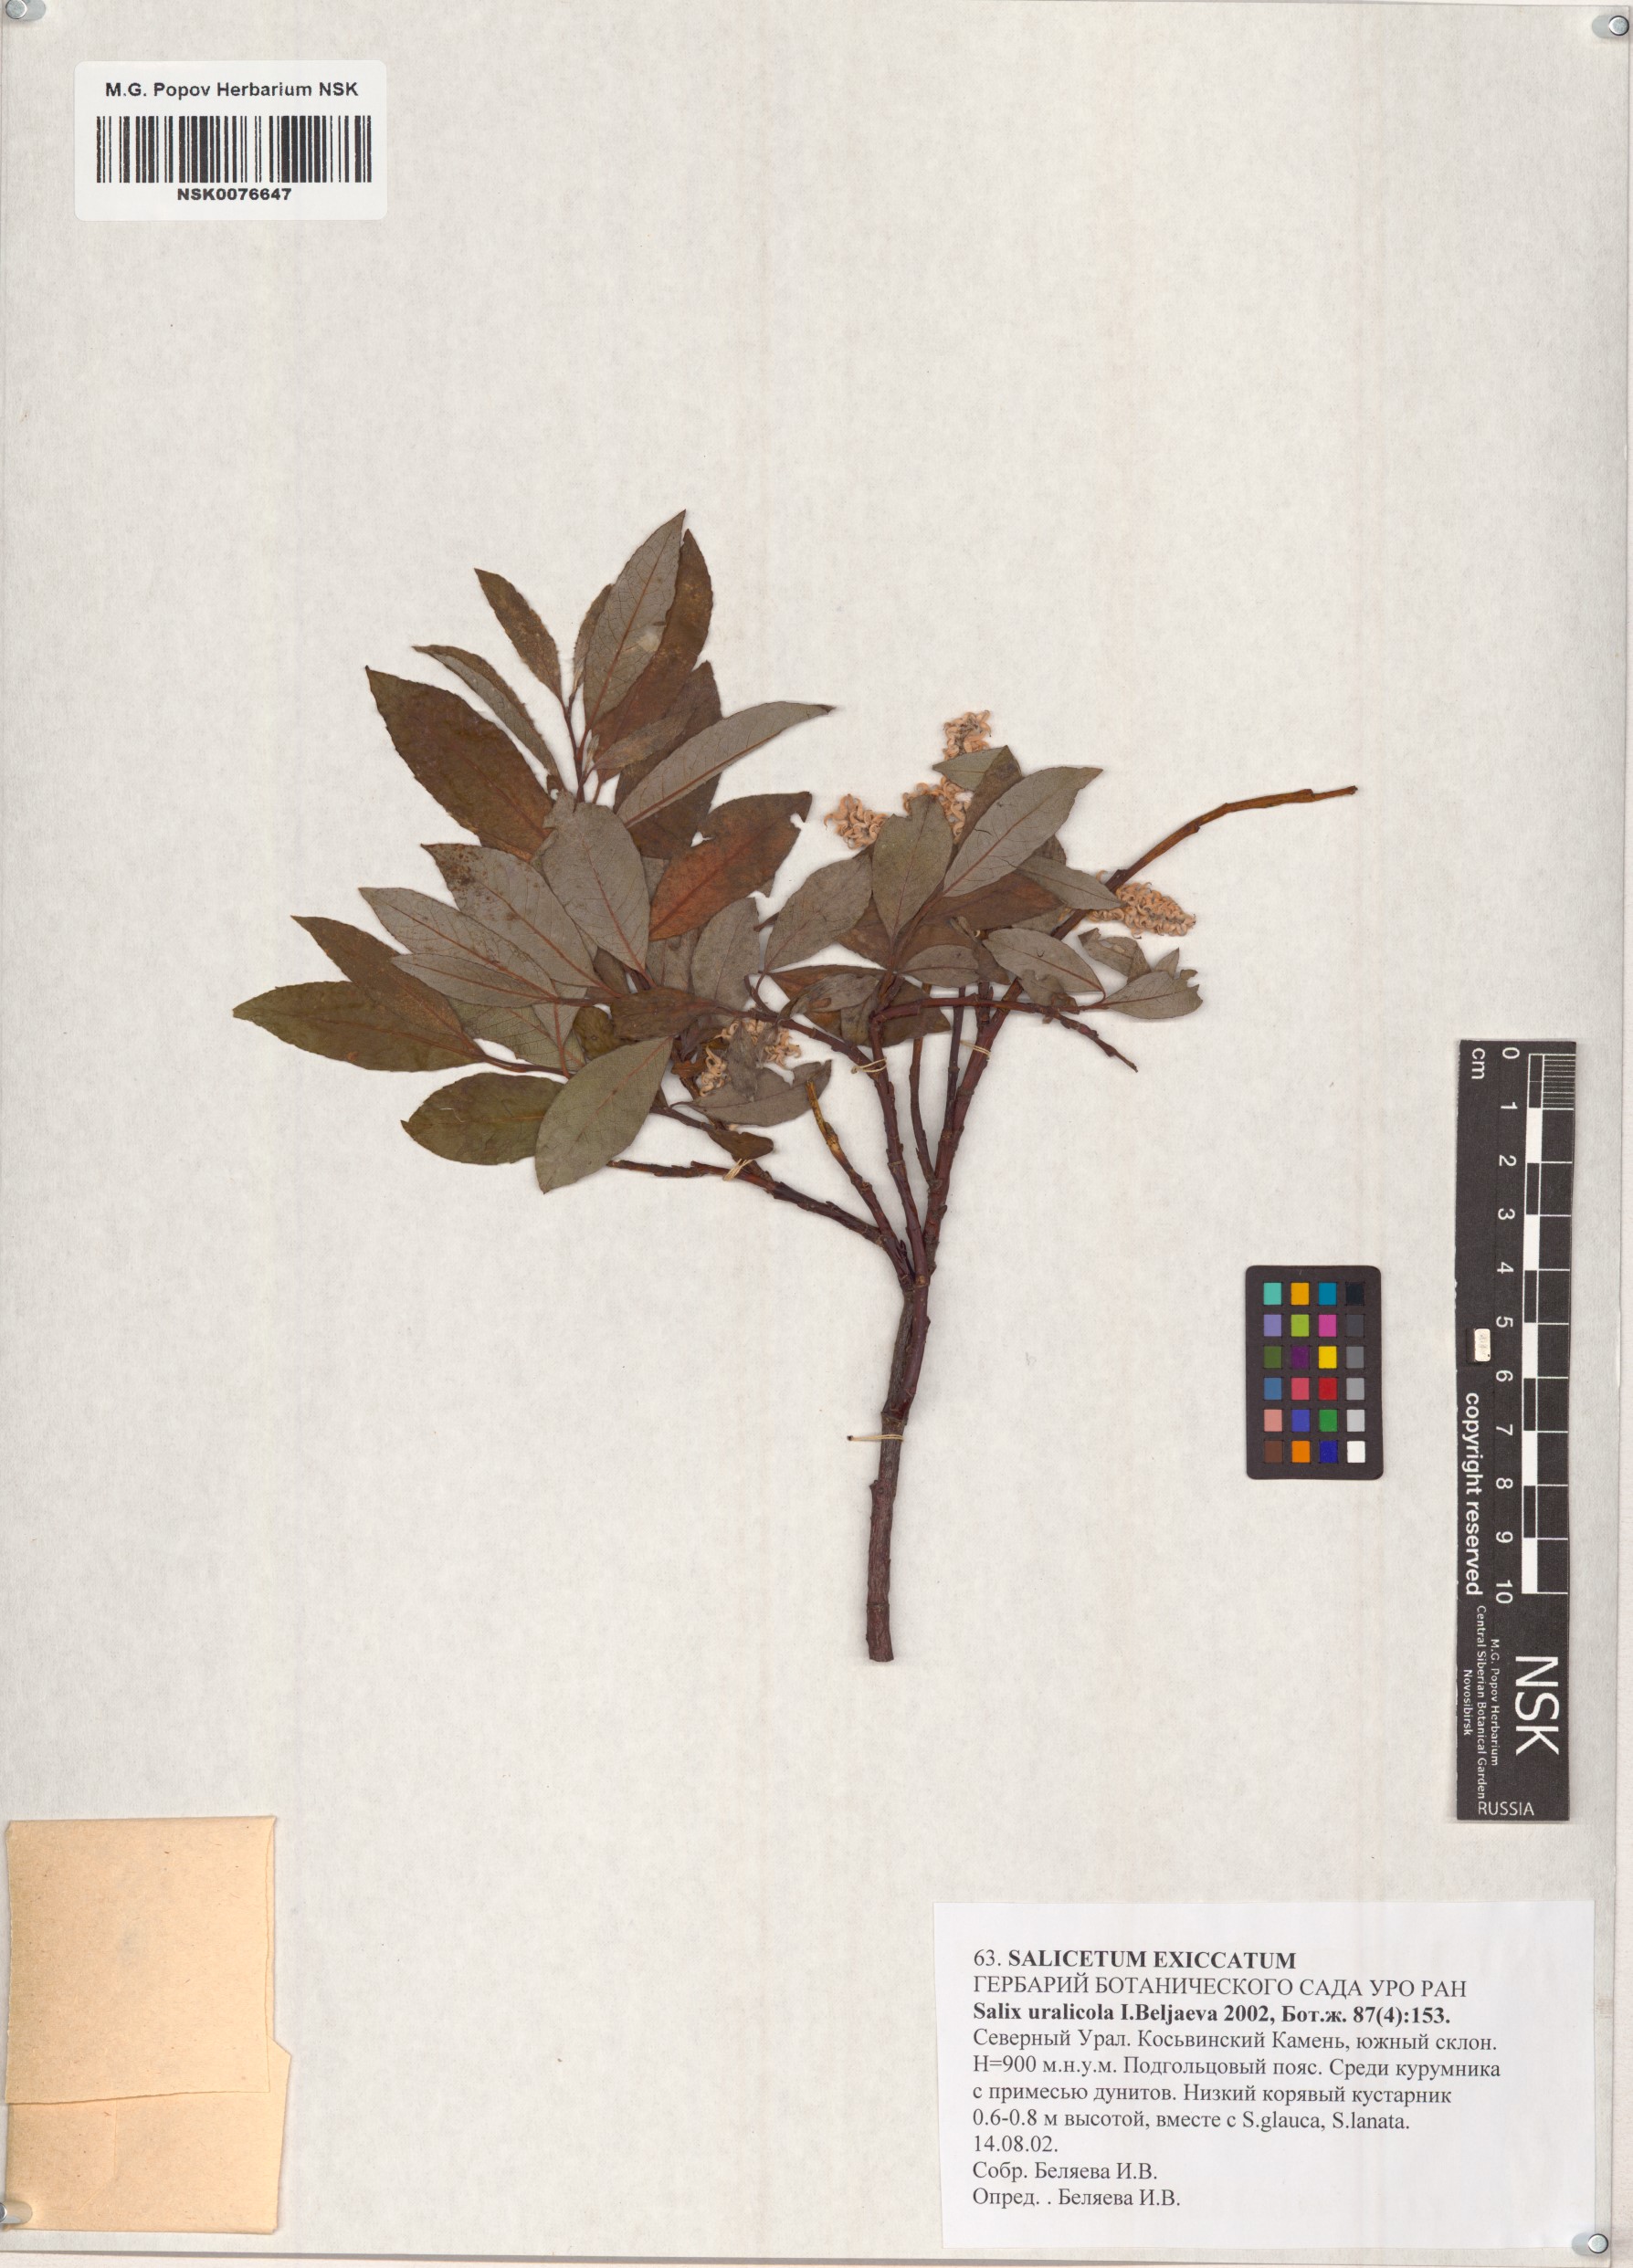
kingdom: Plantae
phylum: Tracheophyta
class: Magnoliopsida
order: Malpighiales
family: Salicaceae
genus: Salix
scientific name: Salix uralicola
